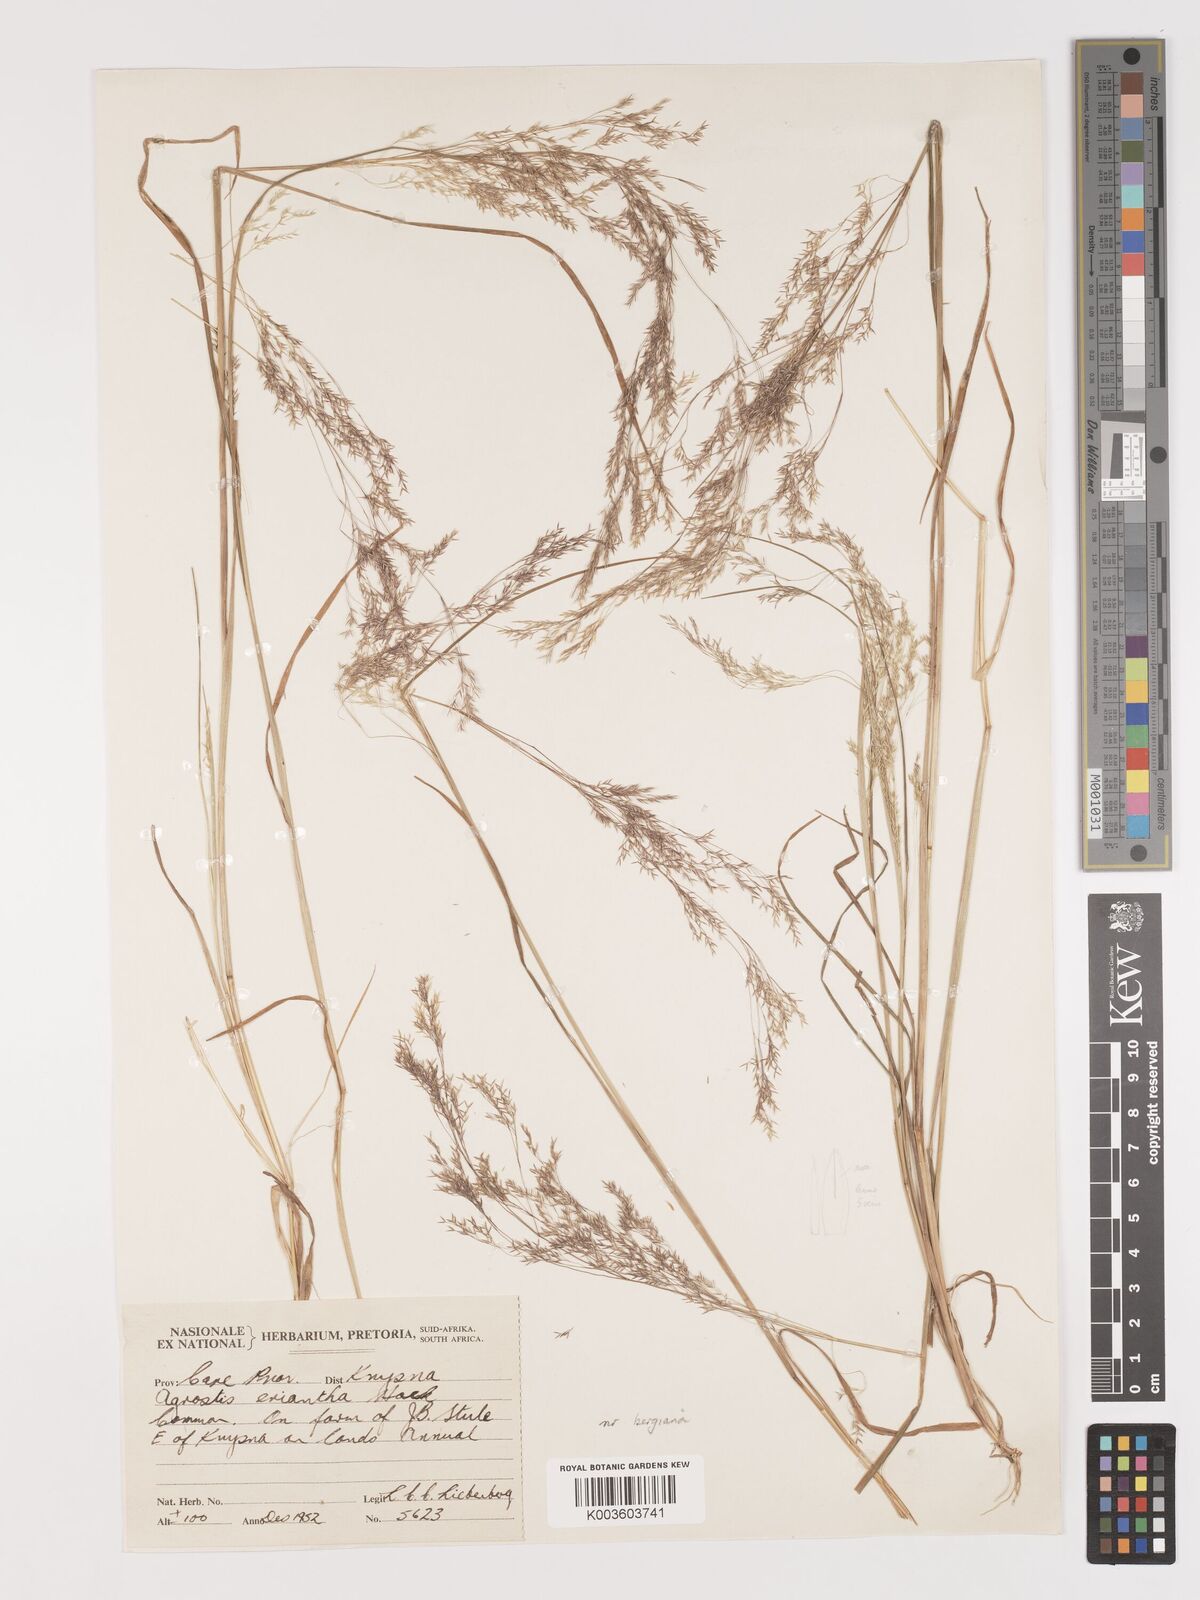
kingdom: Plantae
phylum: Tracheophyta
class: Liliopsida
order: Poales
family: Poaceae
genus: Agrostis
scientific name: Agrostis bergiana
